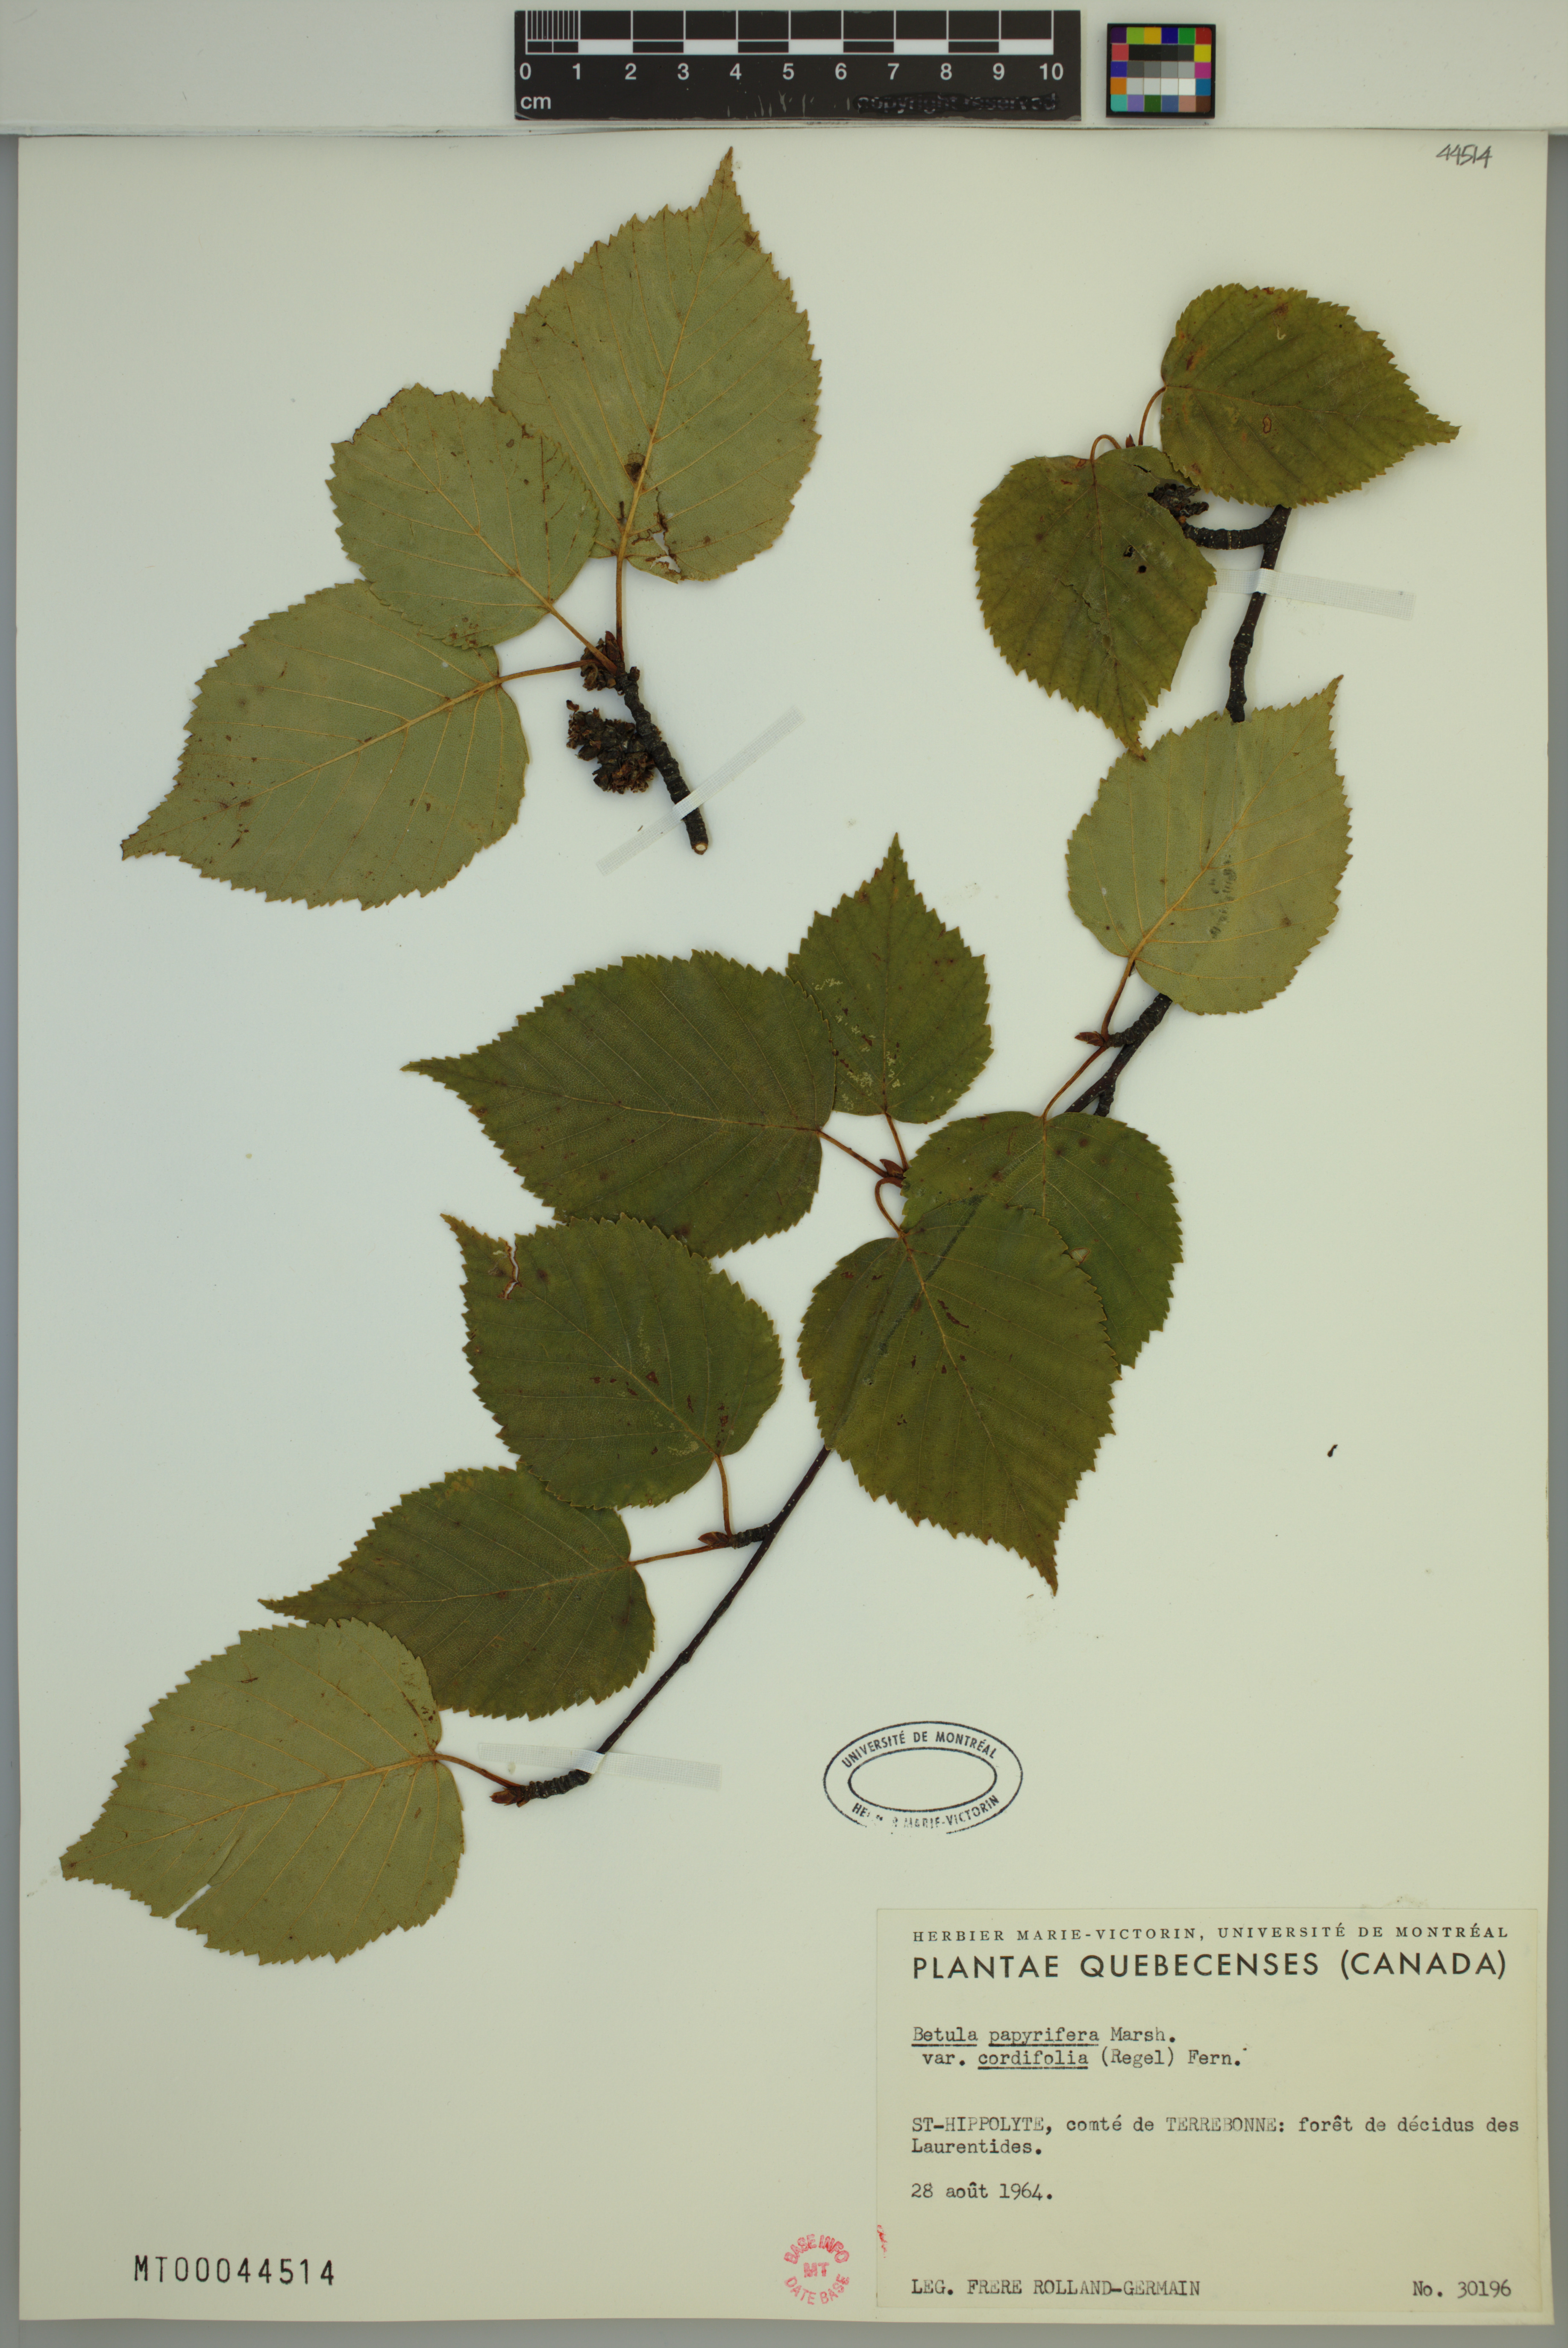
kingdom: Plantae
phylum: Tracheophyta
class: Magnoliopsida
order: Fagales
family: Betulaceae
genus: Betula
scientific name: Betula cordifolia
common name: Mountain white birch
